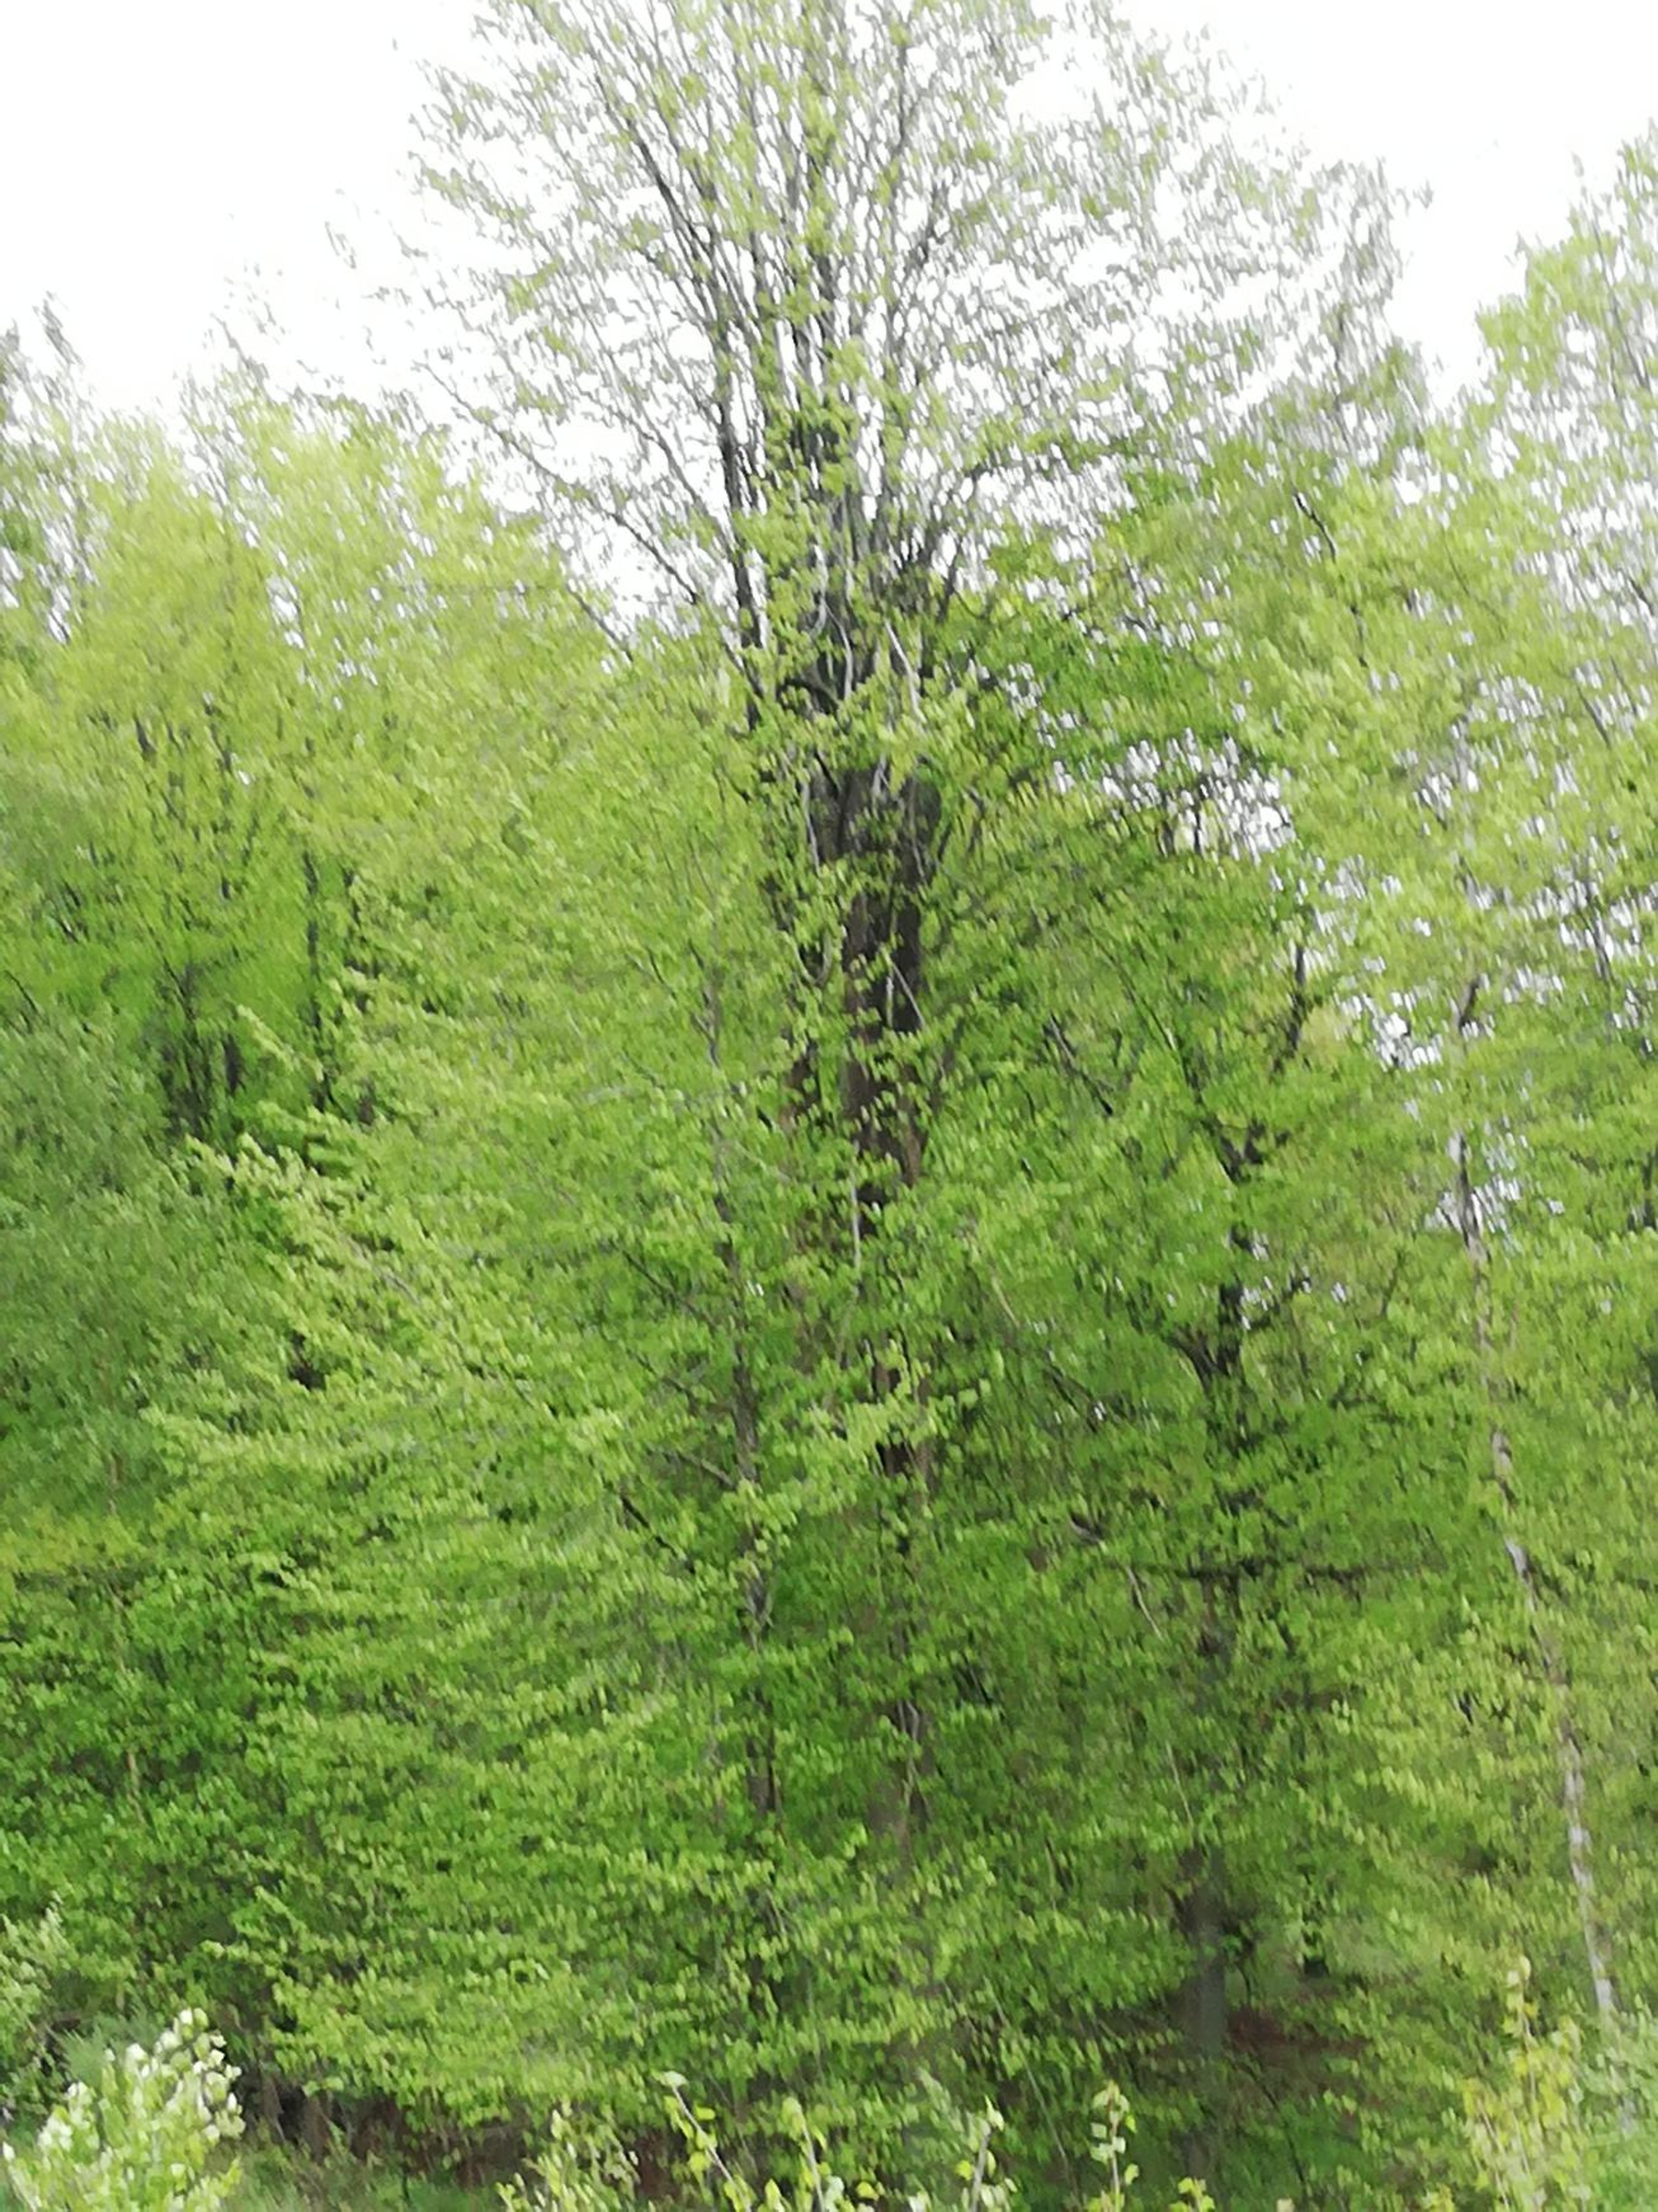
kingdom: Plantae
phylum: Tracheophyta
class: Magnoliopsida
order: Fagales
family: Fagaceae
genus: Fagus
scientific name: Fagus sylvatica
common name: Bøg
